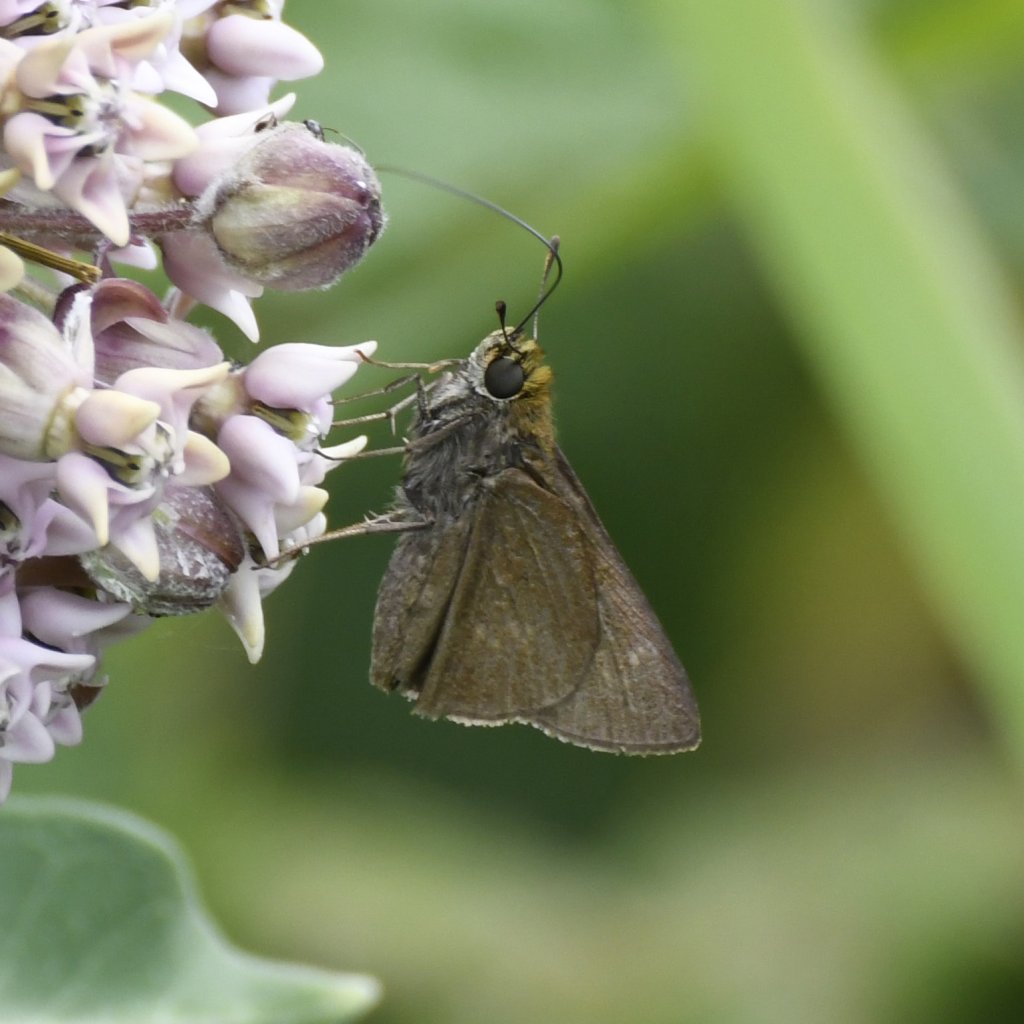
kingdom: Animalia
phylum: Arthropoda
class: Insecta
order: Lepidoptera
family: Hesperiidae
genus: Euphyes
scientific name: Euphyes vestris
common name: Dun Skipper
